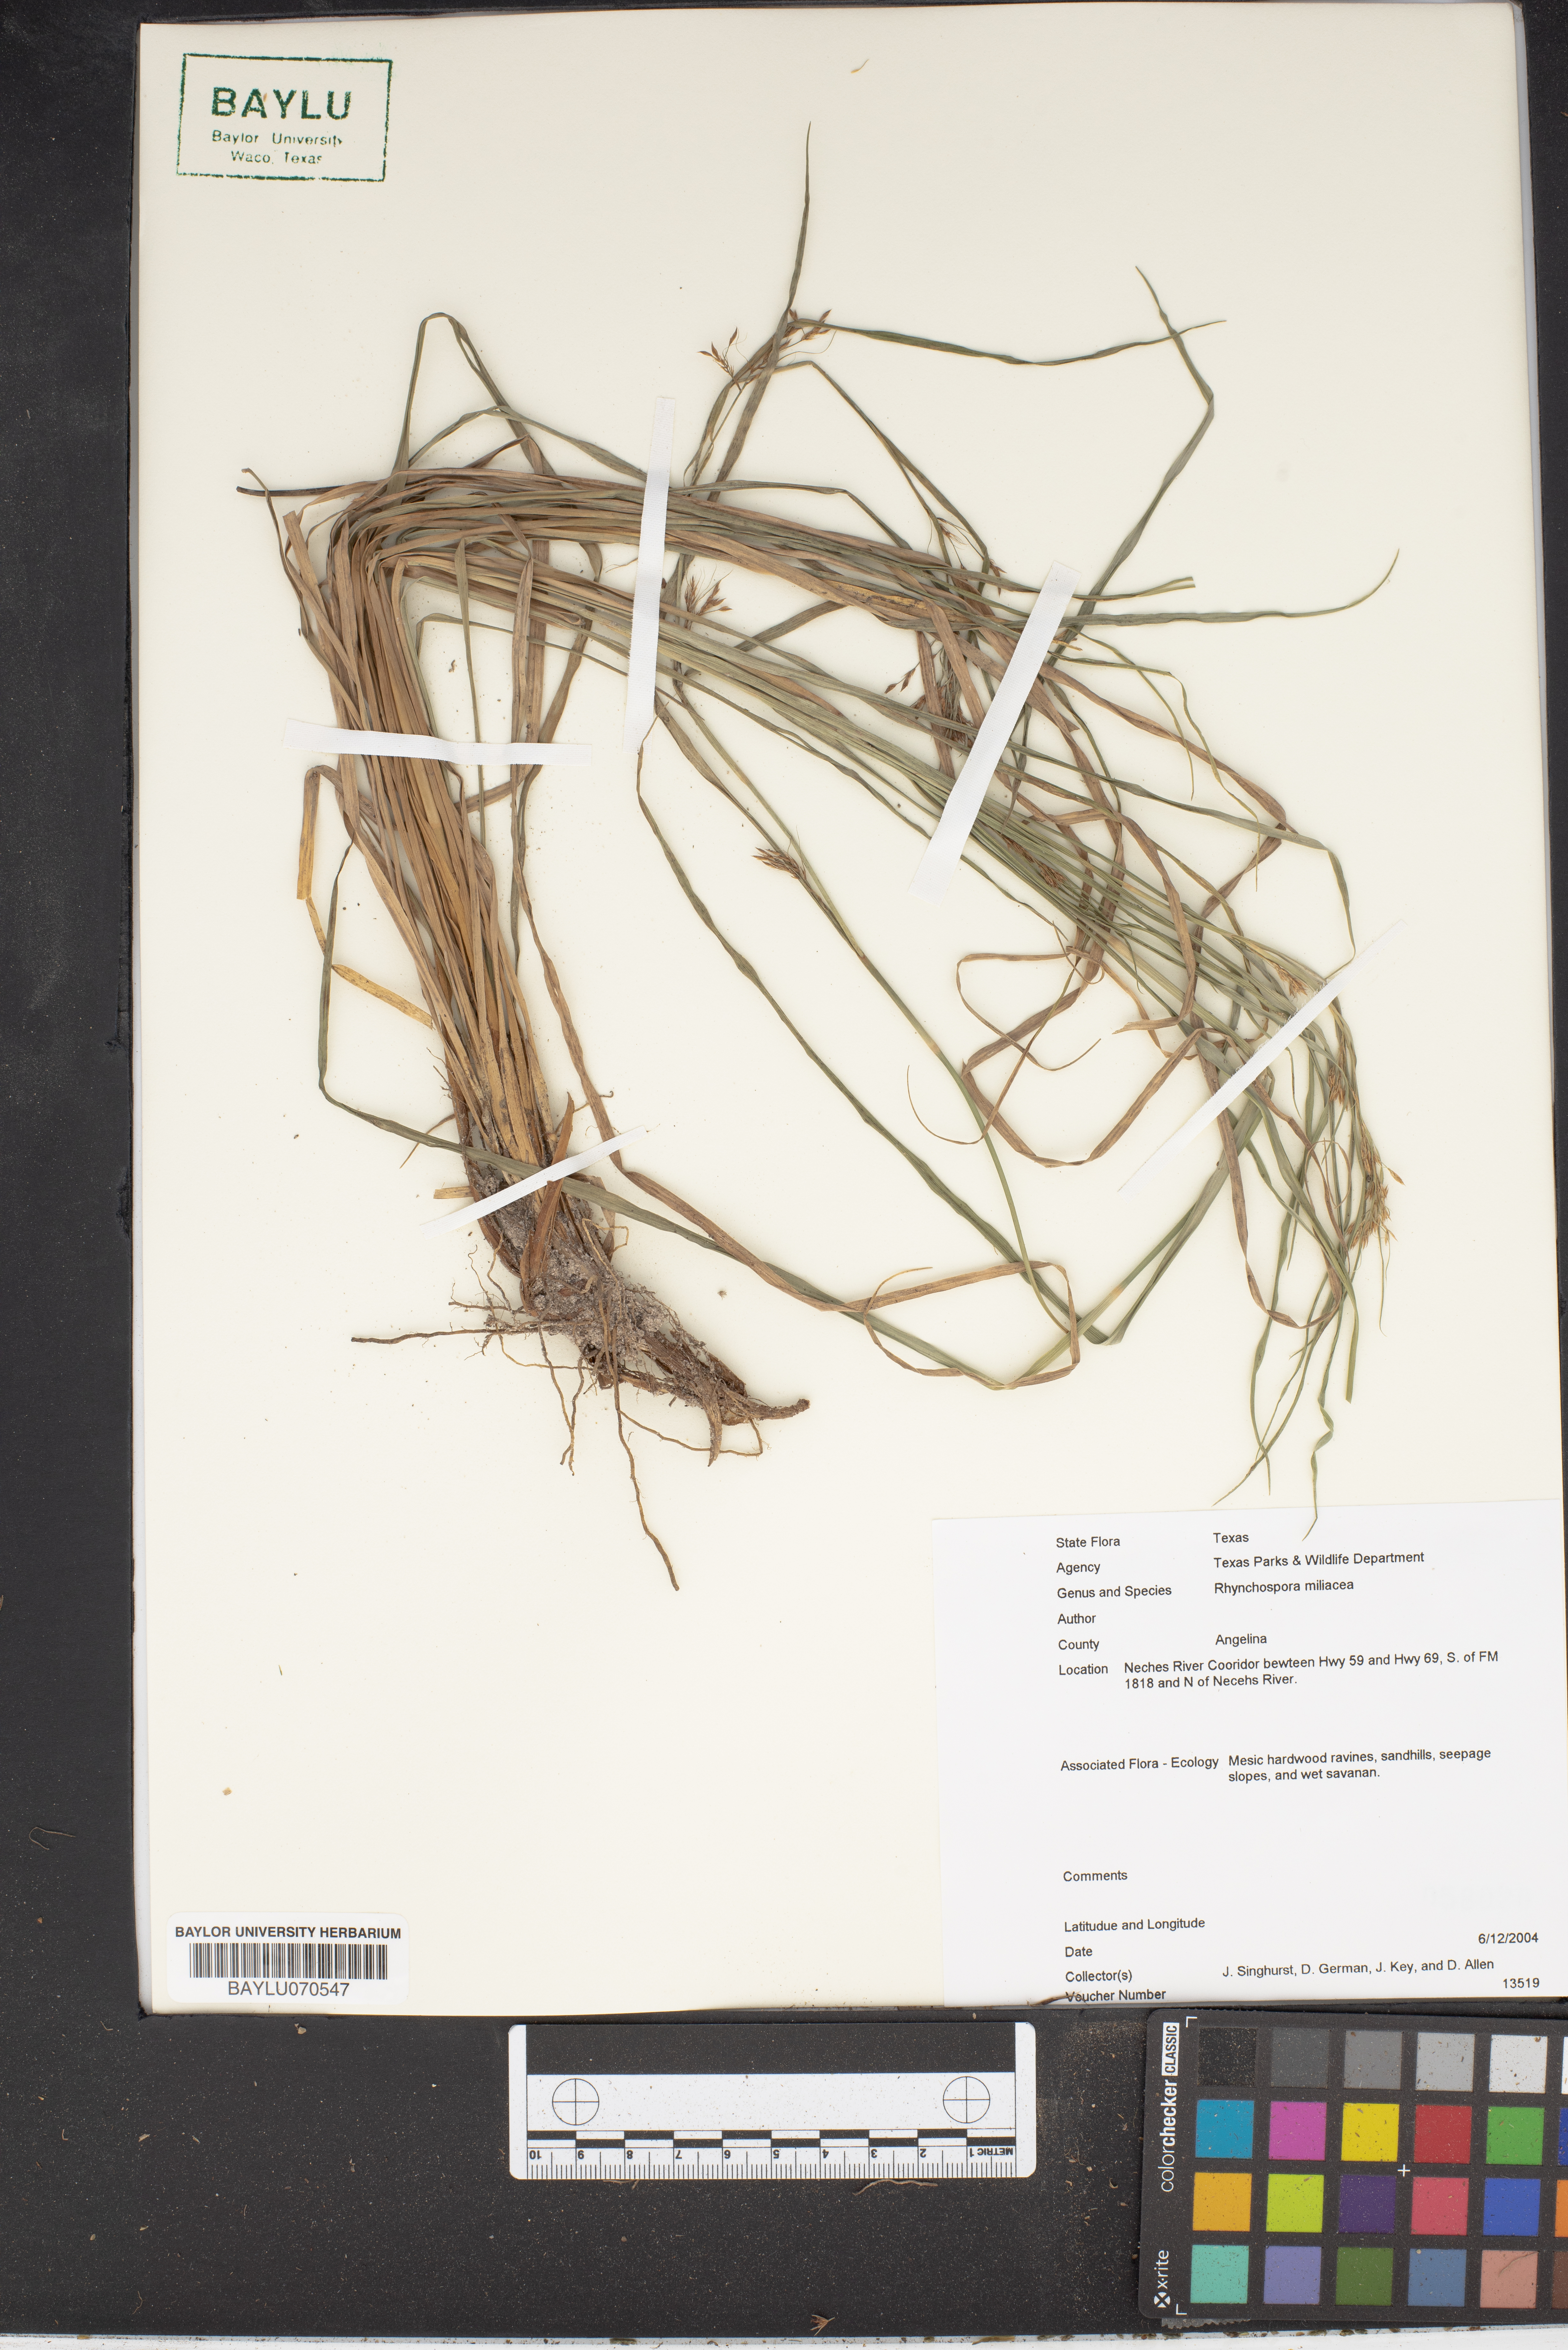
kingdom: Plantae
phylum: Tracheophyta
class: Liliopsida
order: Poales
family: Cyperaceae
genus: Rhynchospora
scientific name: Rhynchospora miliacea
